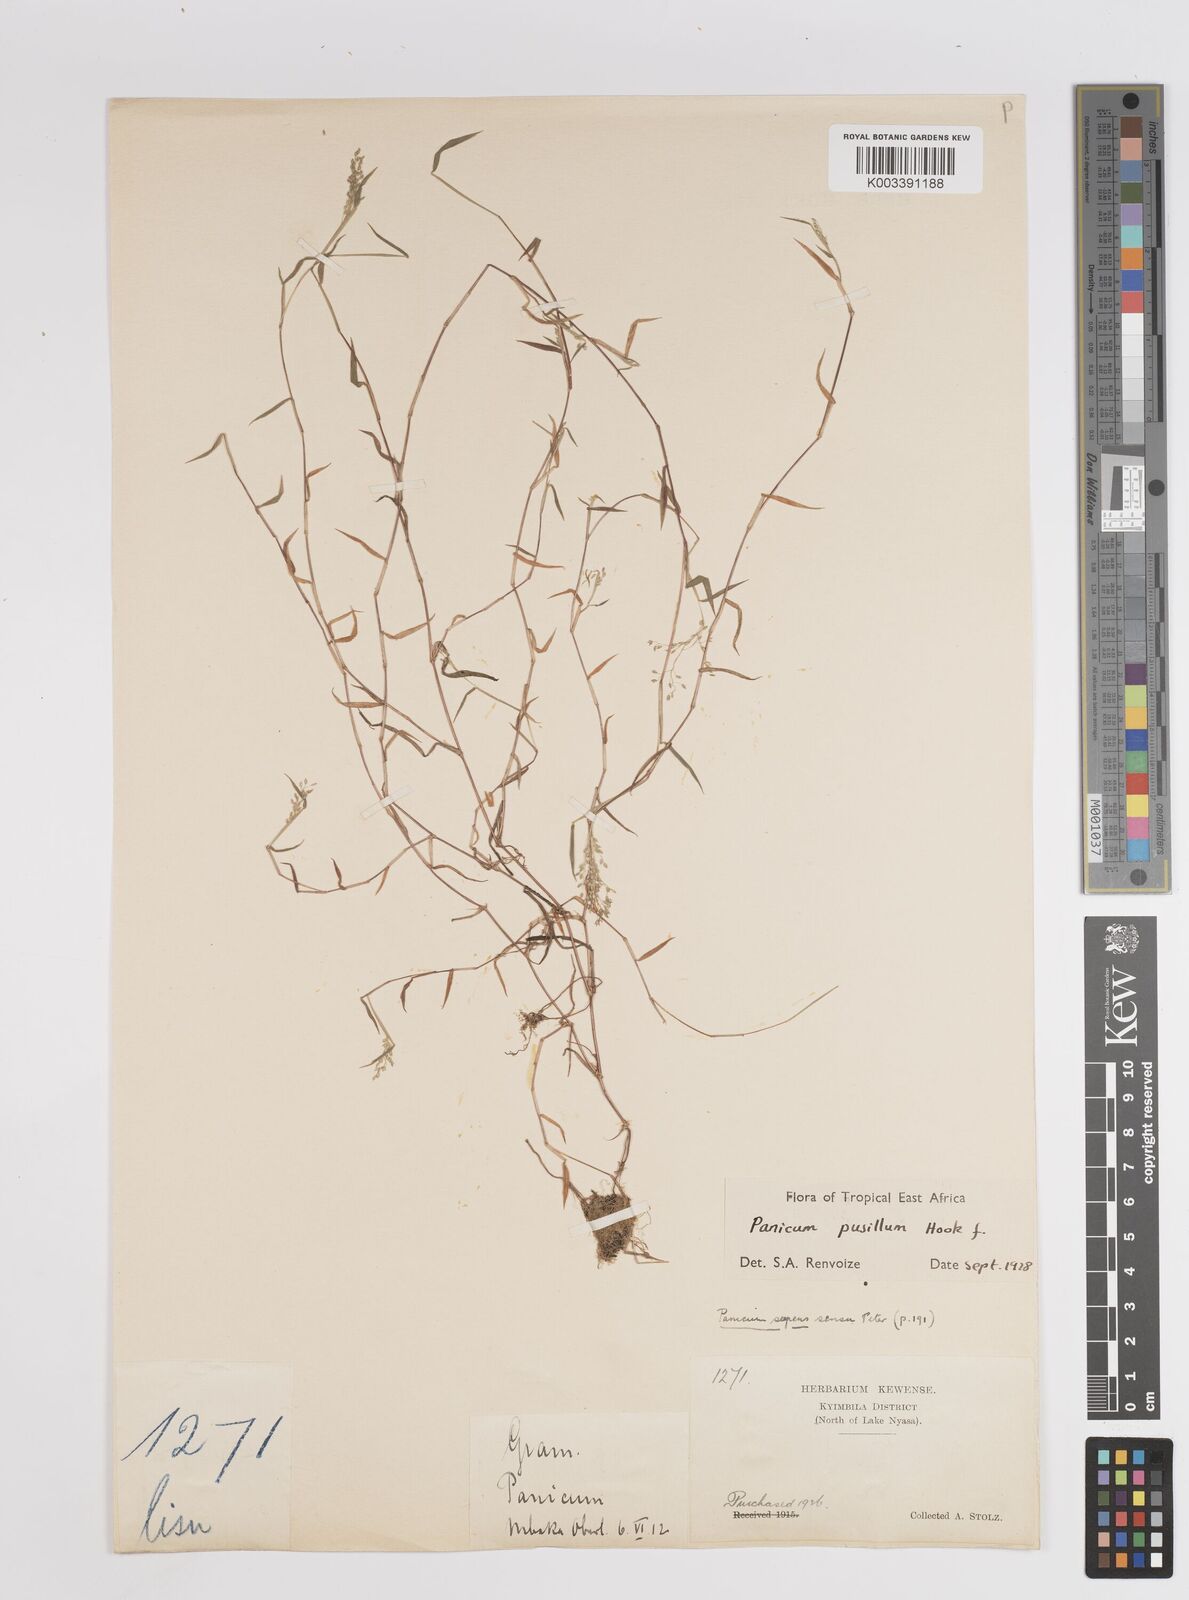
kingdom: Plantae
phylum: Tracheophyta
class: Liliopsida
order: Poales
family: Poaceae
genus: Panicum
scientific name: Panicum pusillum
